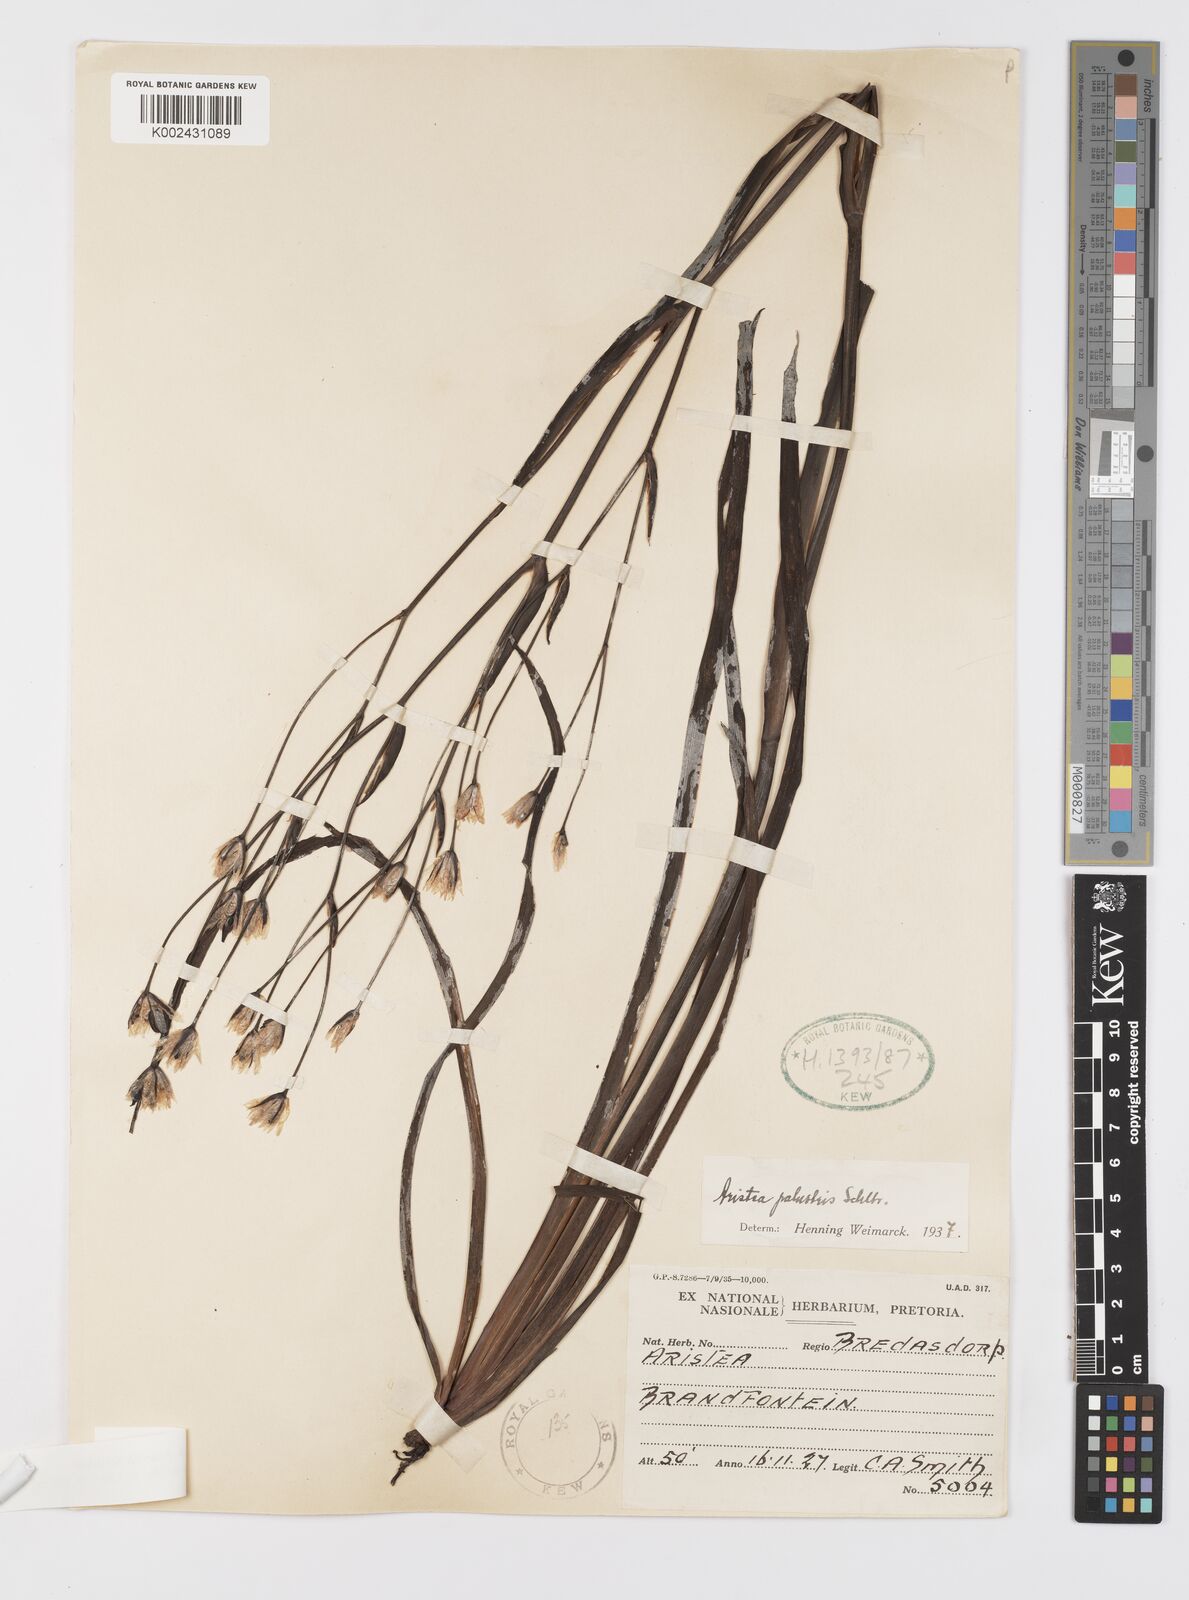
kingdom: Plantae
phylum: Tracheophyta
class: Liliopsida
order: Asparagales
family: Iridaceae
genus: Aristea
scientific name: Aristea palustris
